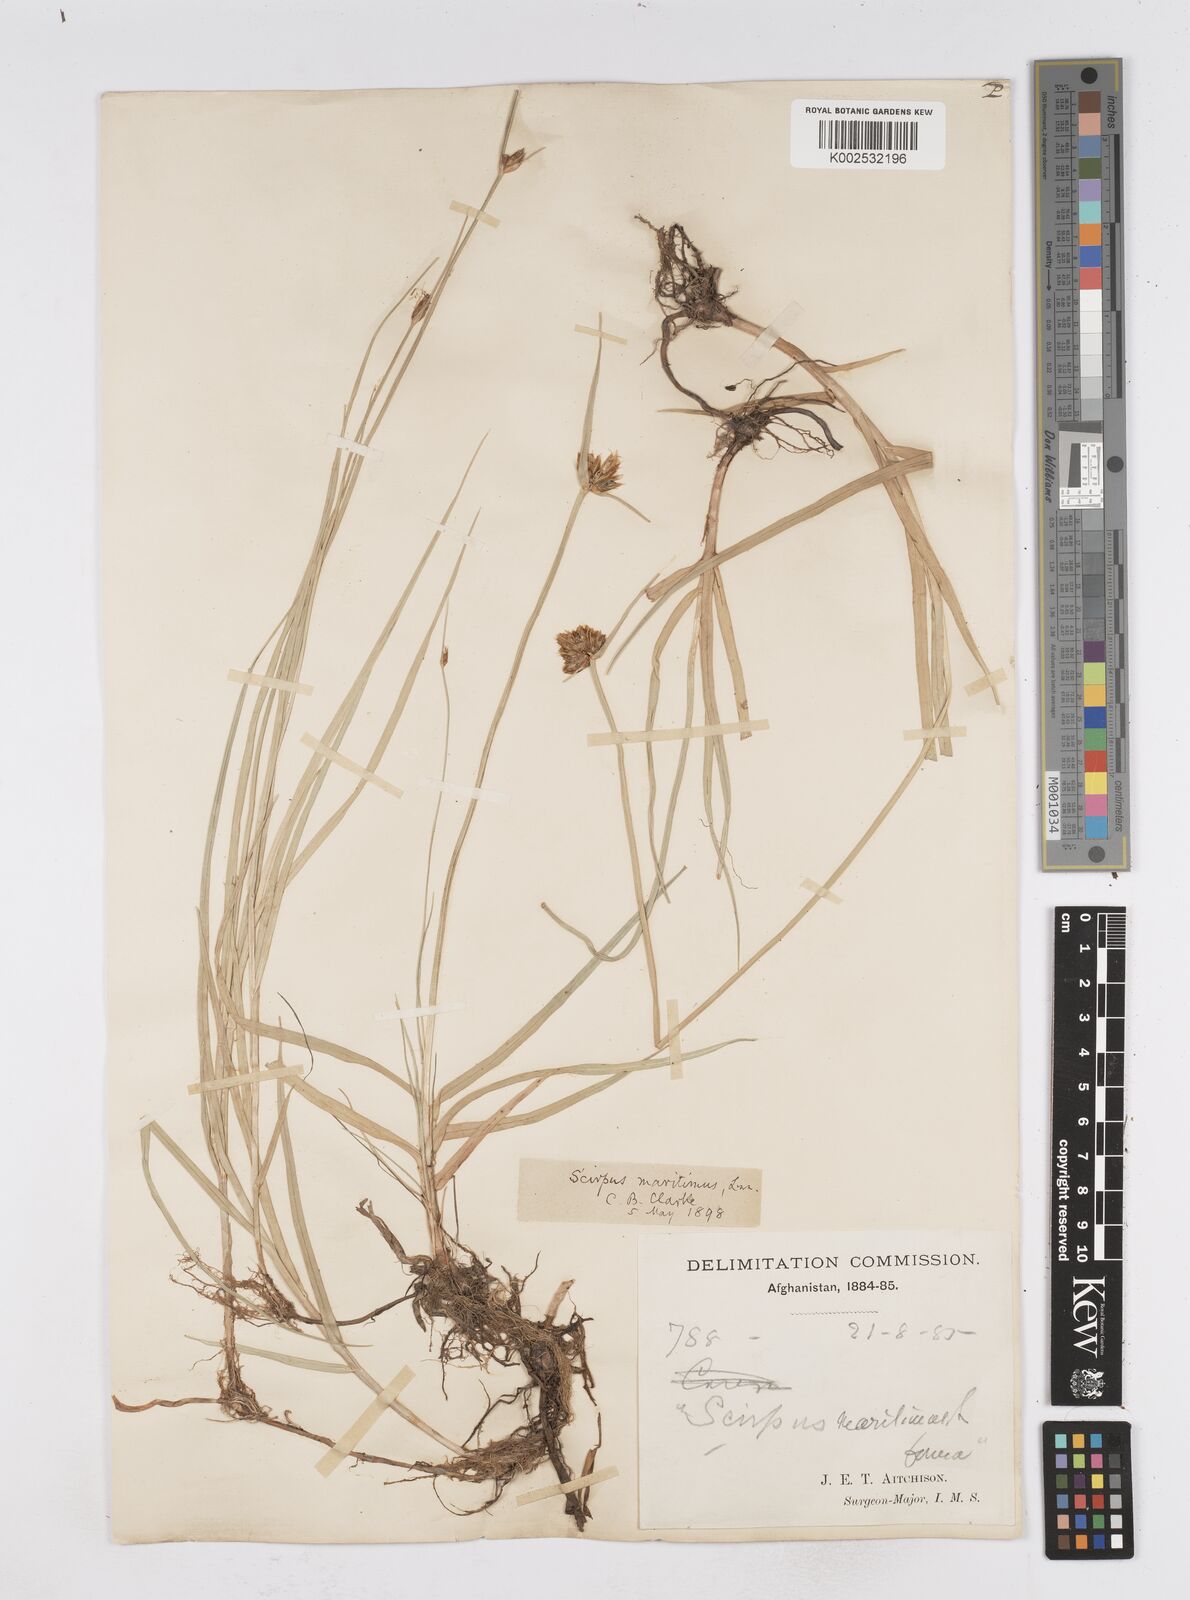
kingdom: Plantae
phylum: Tracheophyta
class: Liliopsida
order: Poales
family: Cyperaceae
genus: Bolboschoenus
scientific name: Bolboschoenus maritimus
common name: Sea club-rush
